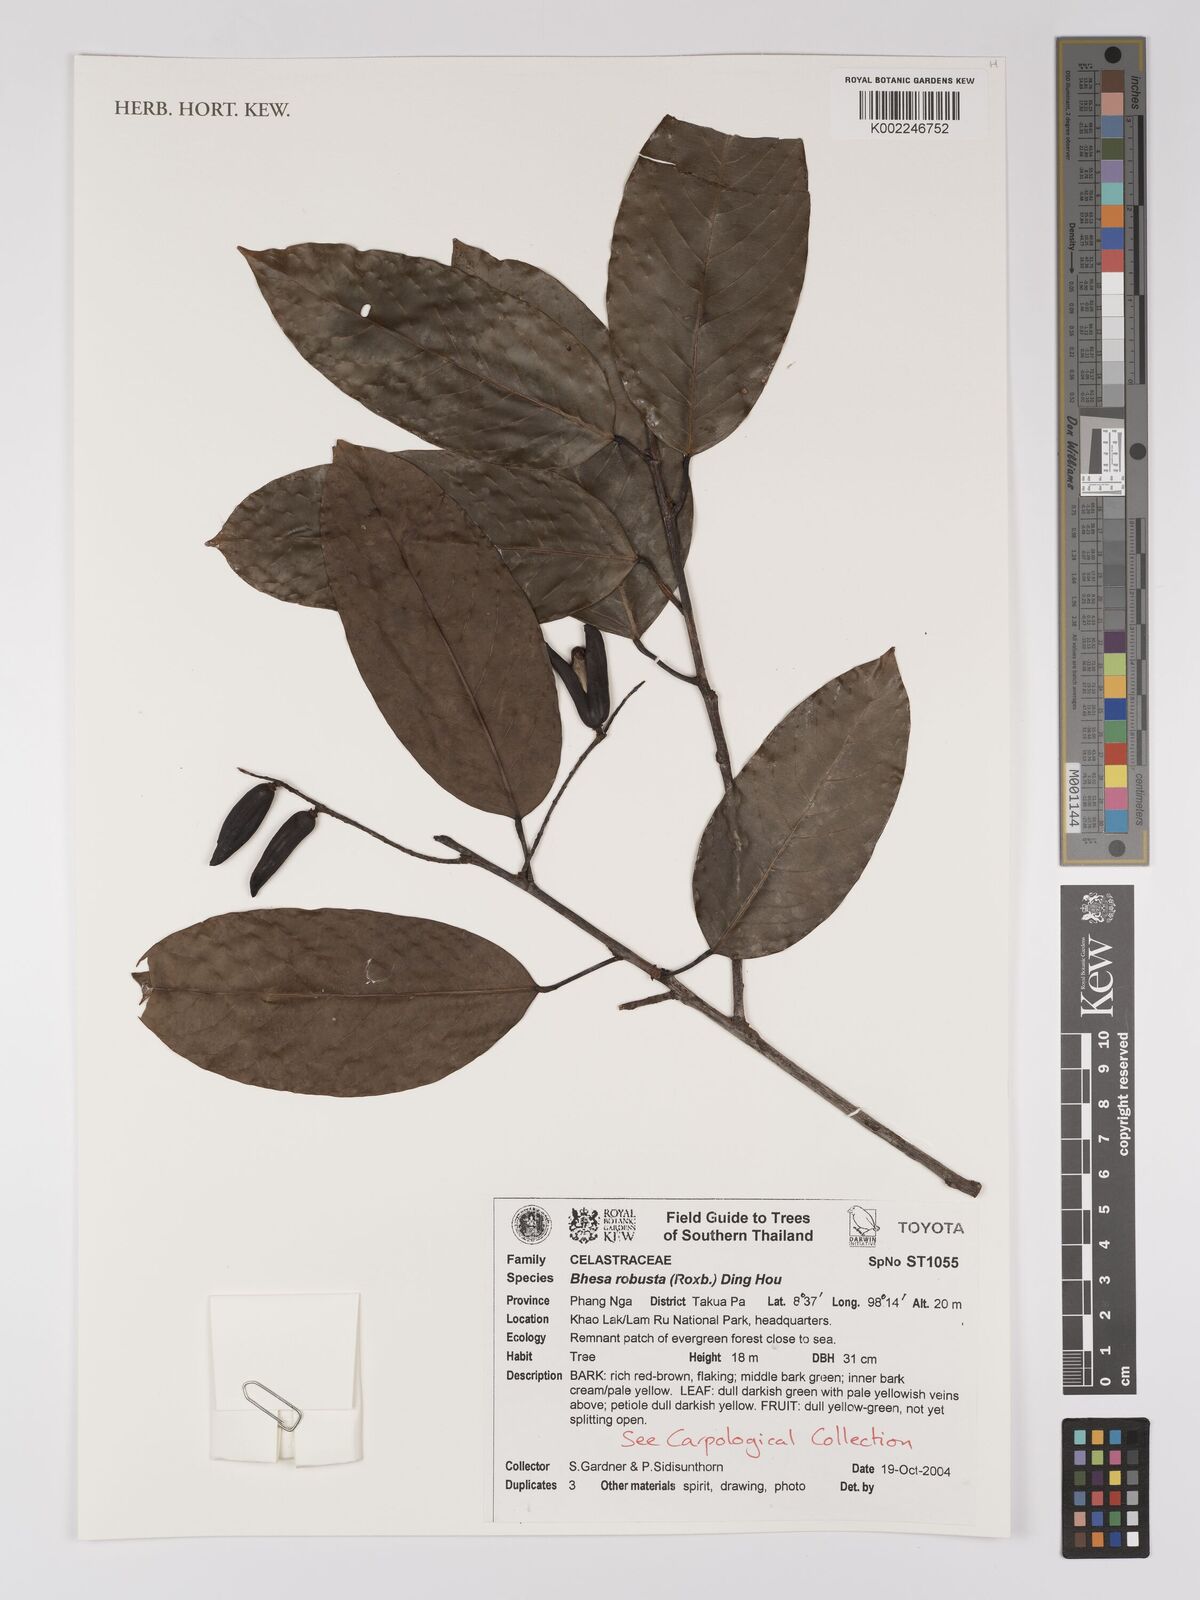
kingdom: Plantae
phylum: Tracheophyta
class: Magnoliopsida
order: Malpighiales
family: Centroplacaceae
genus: Bhesa
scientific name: Bhesa robusta
